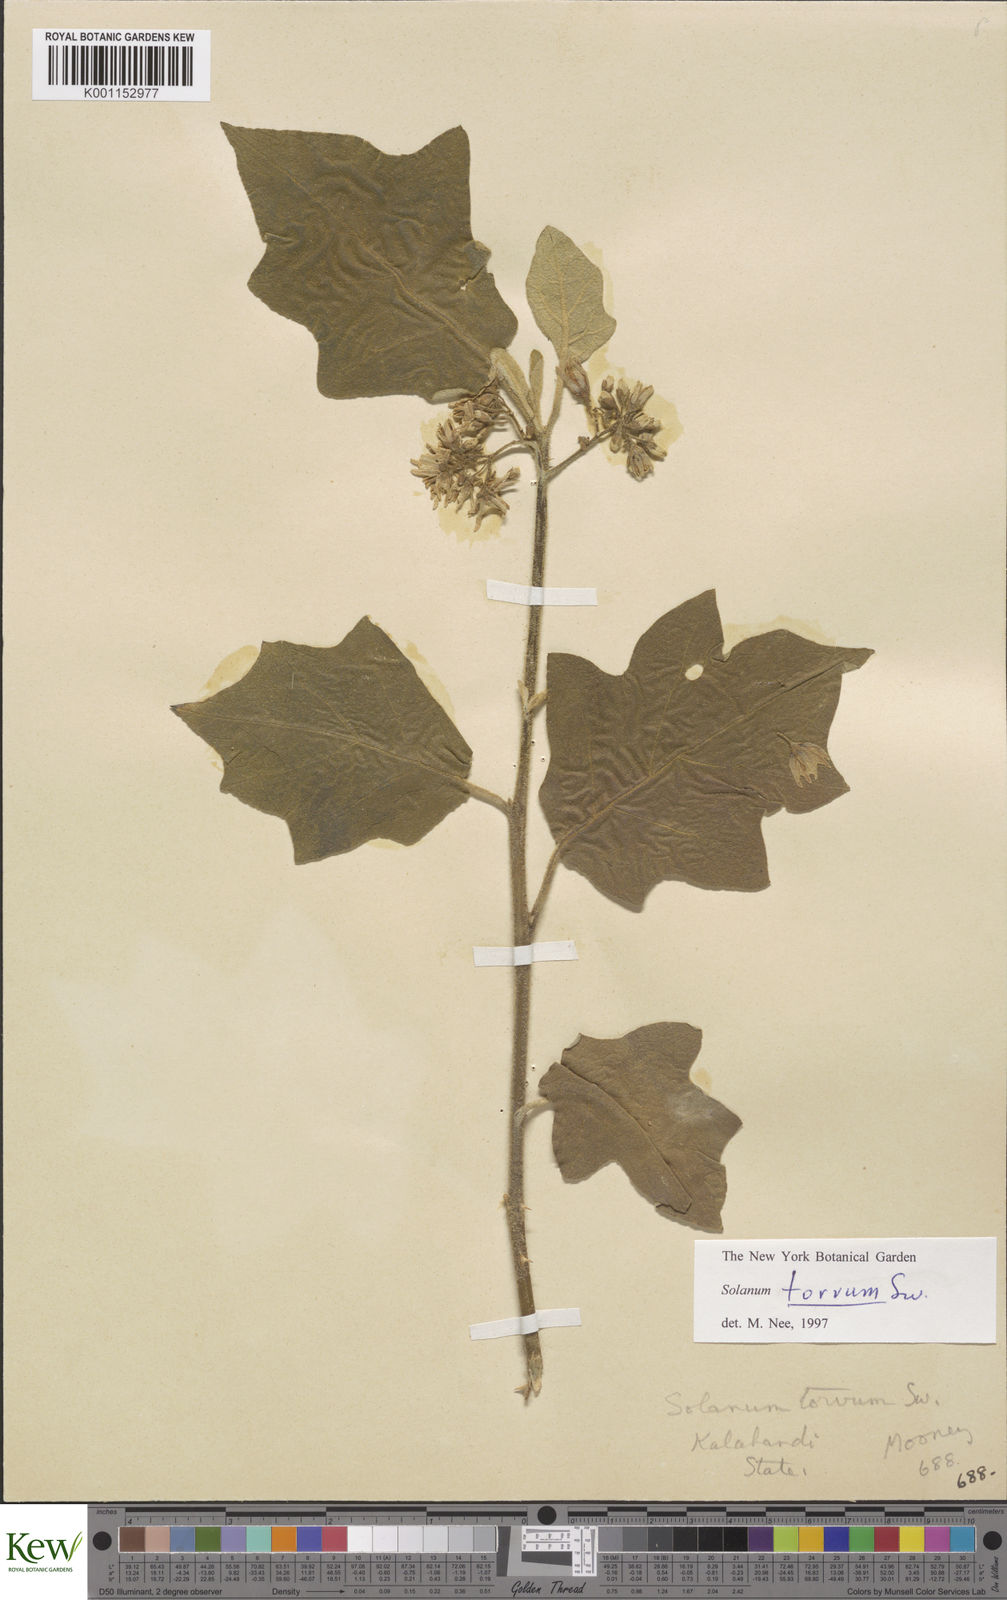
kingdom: Plantae
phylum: Tracheophyta
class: Magnoliopsida
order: Solanales
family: Solanaceae
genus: Solanum
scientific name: Solanum torvum
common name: Turkey berry
